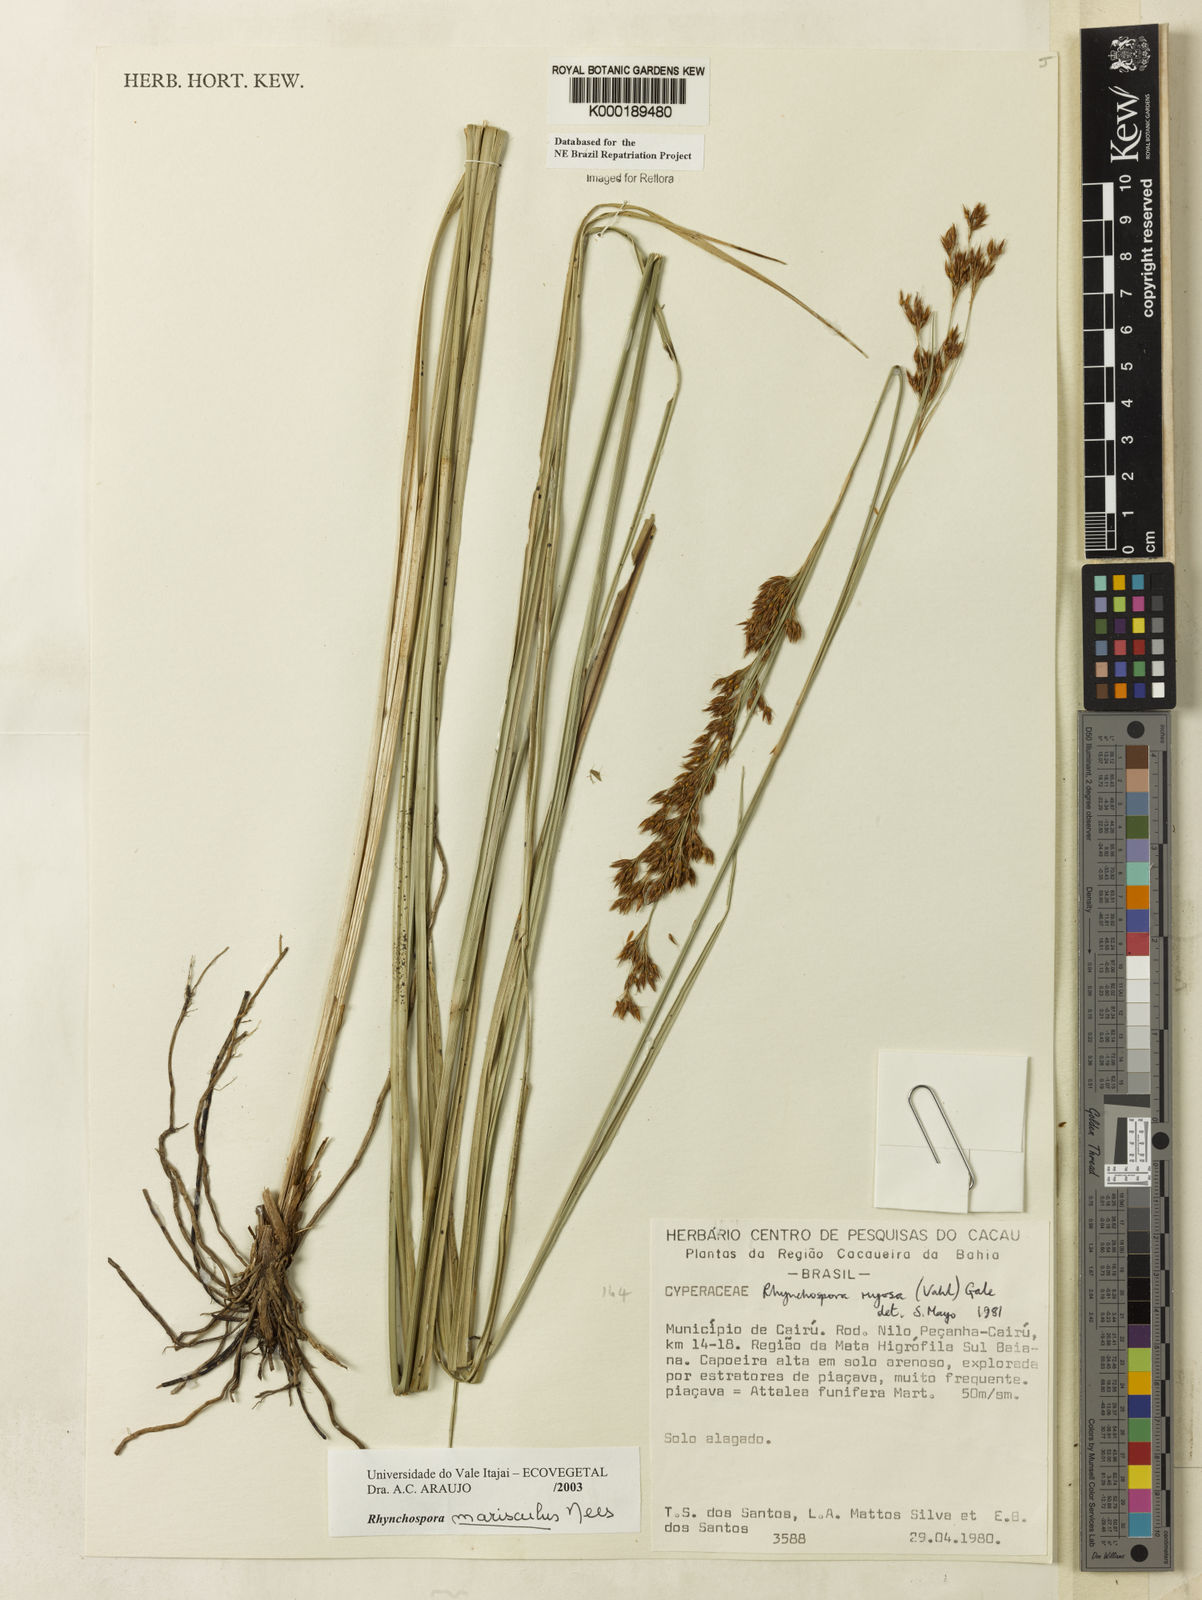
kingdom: Plantae
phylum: Tracheophyta
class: Liliopsida
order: Poales
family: Cyperaceae
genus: Rhynchospora
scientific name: Rhynchospora marisculus
